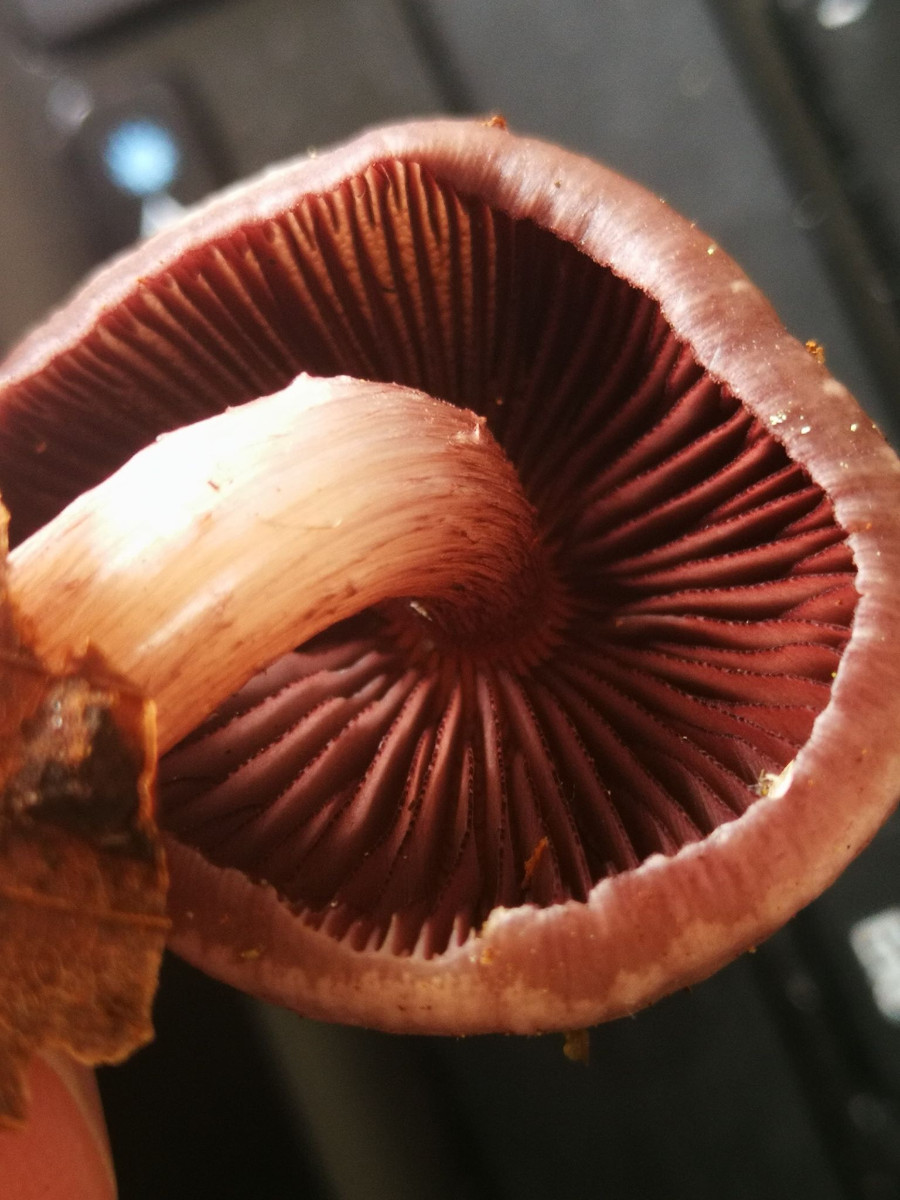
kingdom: Fungi
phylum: Basidiomycota
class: Agaricomycetes
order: Agaricales
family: Mycenaceae
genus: Mycena
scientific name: Mycena pelianthina
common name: mørkbladet huesvamp
